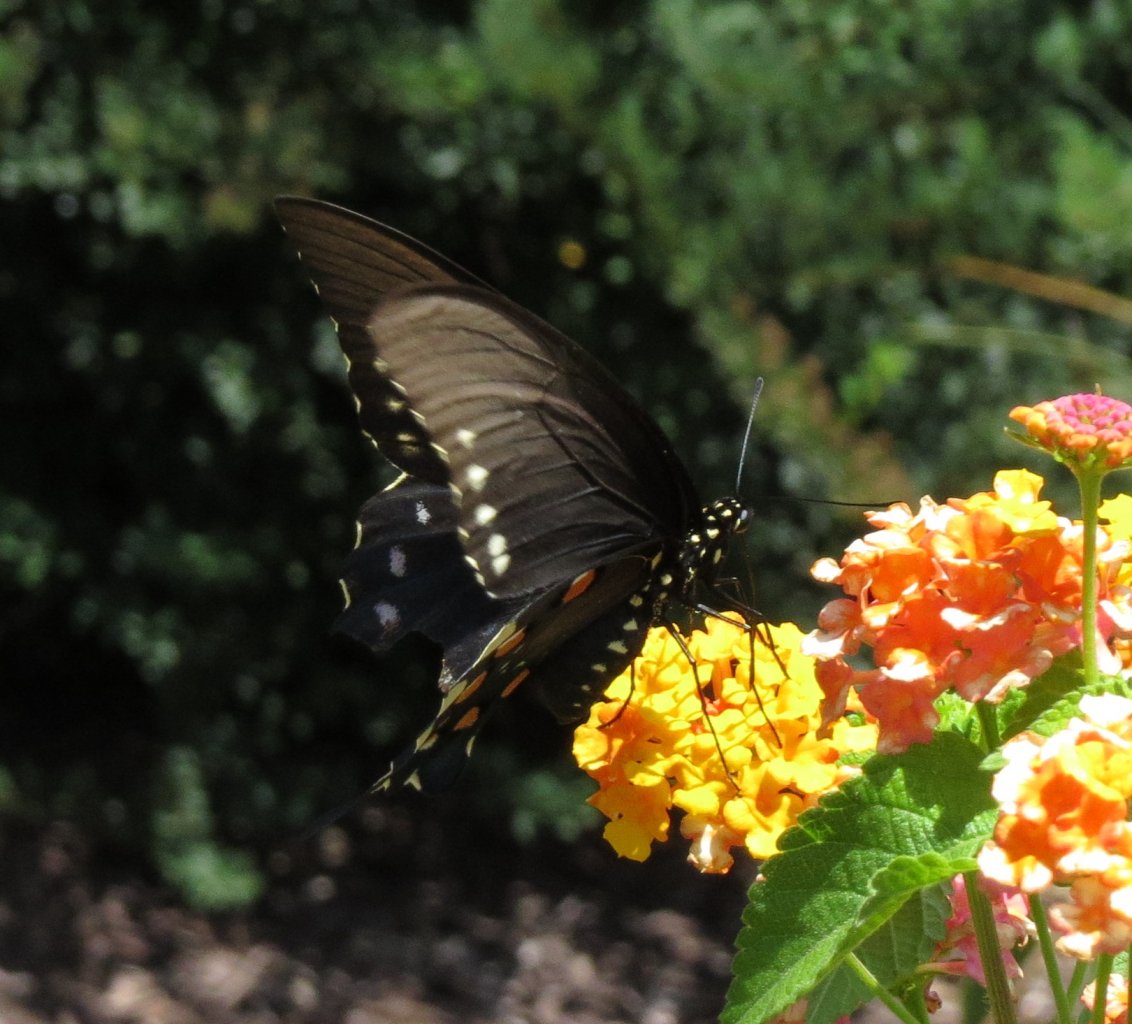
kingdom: Animalia
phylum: Arthropoda
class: Insecta
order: Lepidoptera
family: Papilionidae
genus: Battus
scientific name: Battus philenor
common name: Pipevine Swallowtail
